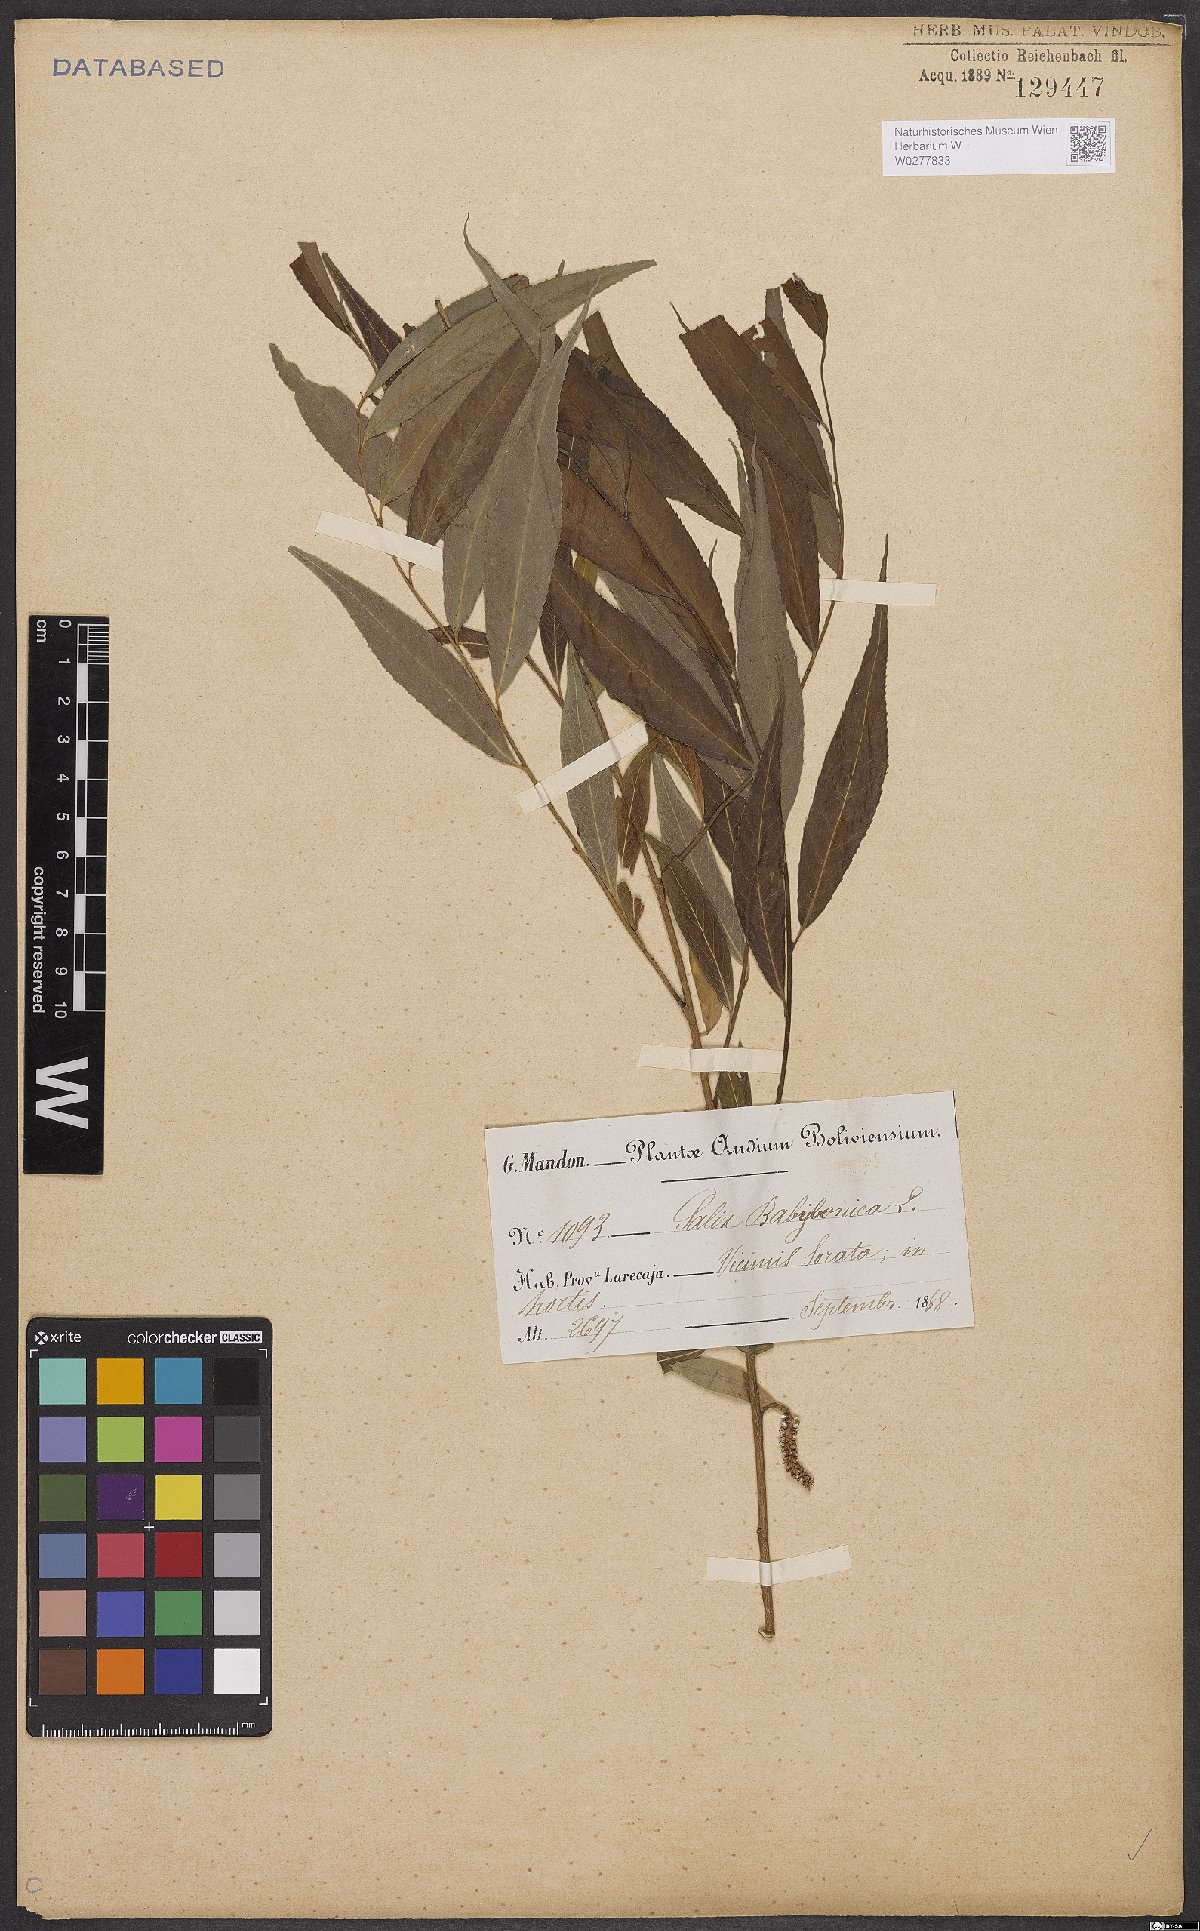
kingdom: Plantae
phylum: Tracheophyta
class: Magnoliopsida
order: Malpighiales
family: Salicaceae
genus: Salix
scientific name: Salix babylonica
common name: Weeping willow
